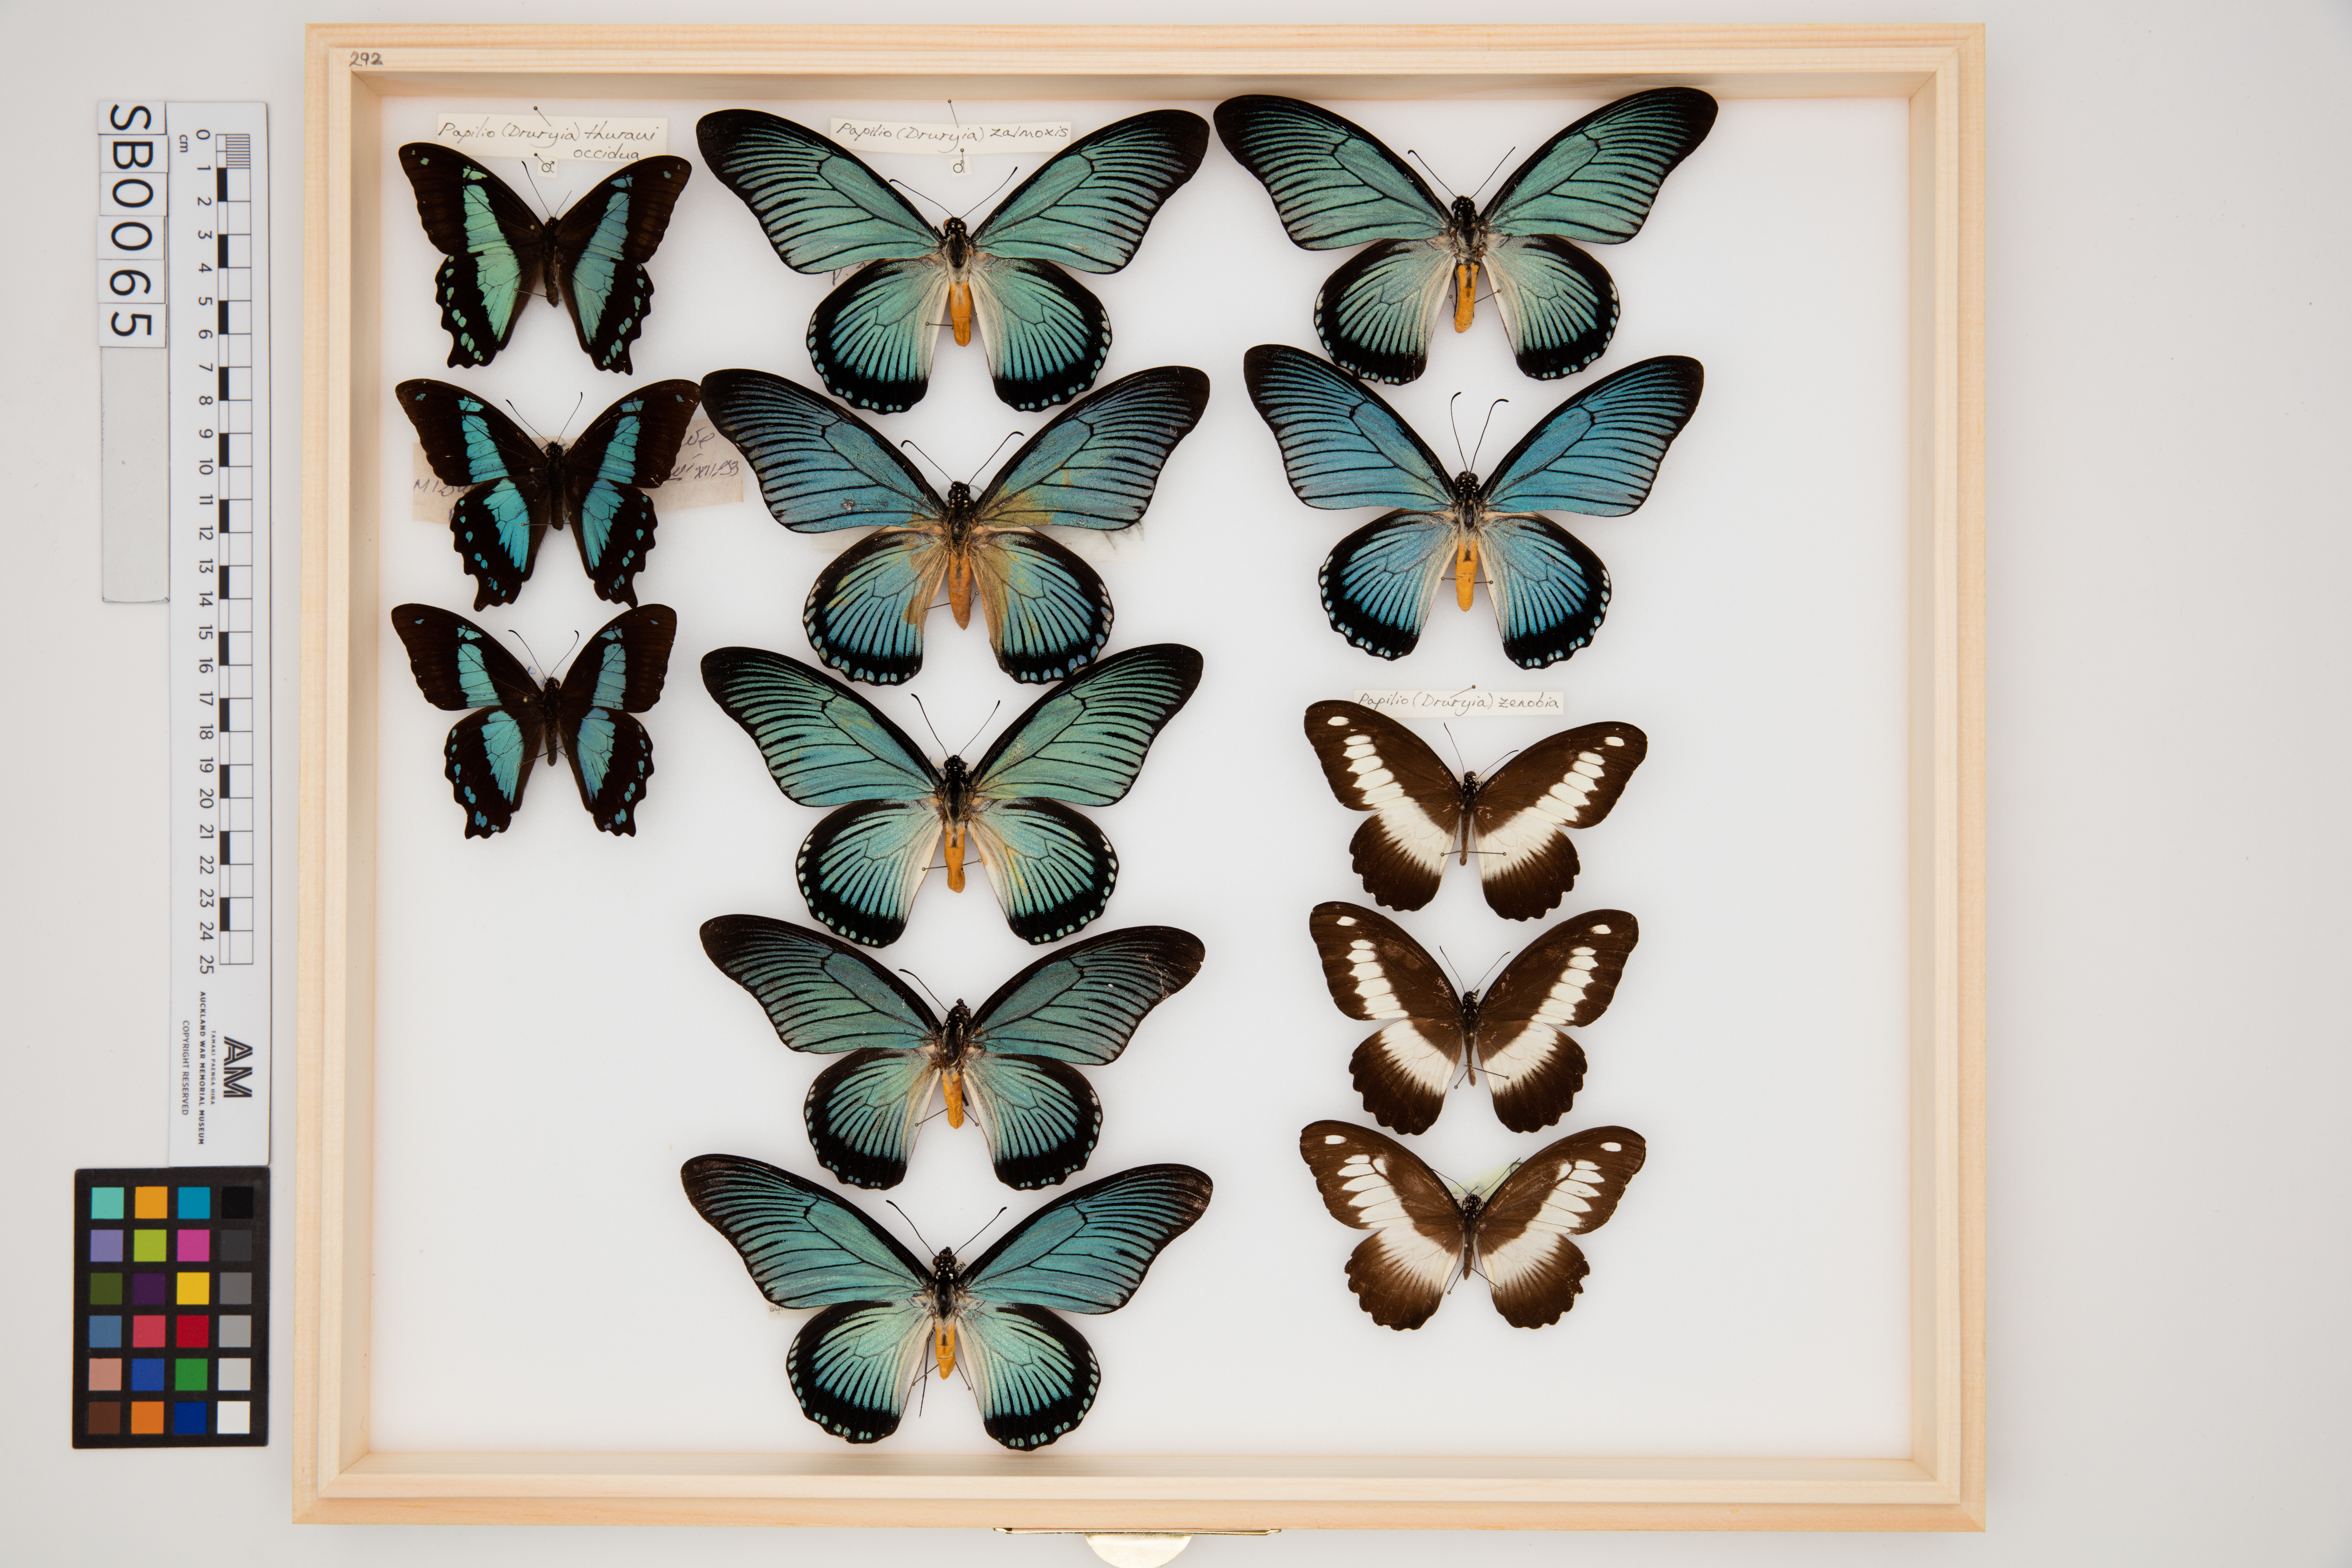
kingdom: Animalia
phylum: Arthropoda
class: Insecta
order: Lepidoptera
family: Papilionidae
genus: Papilio
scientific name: Papilio zalmoxis
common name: Giant blue swallowtail
